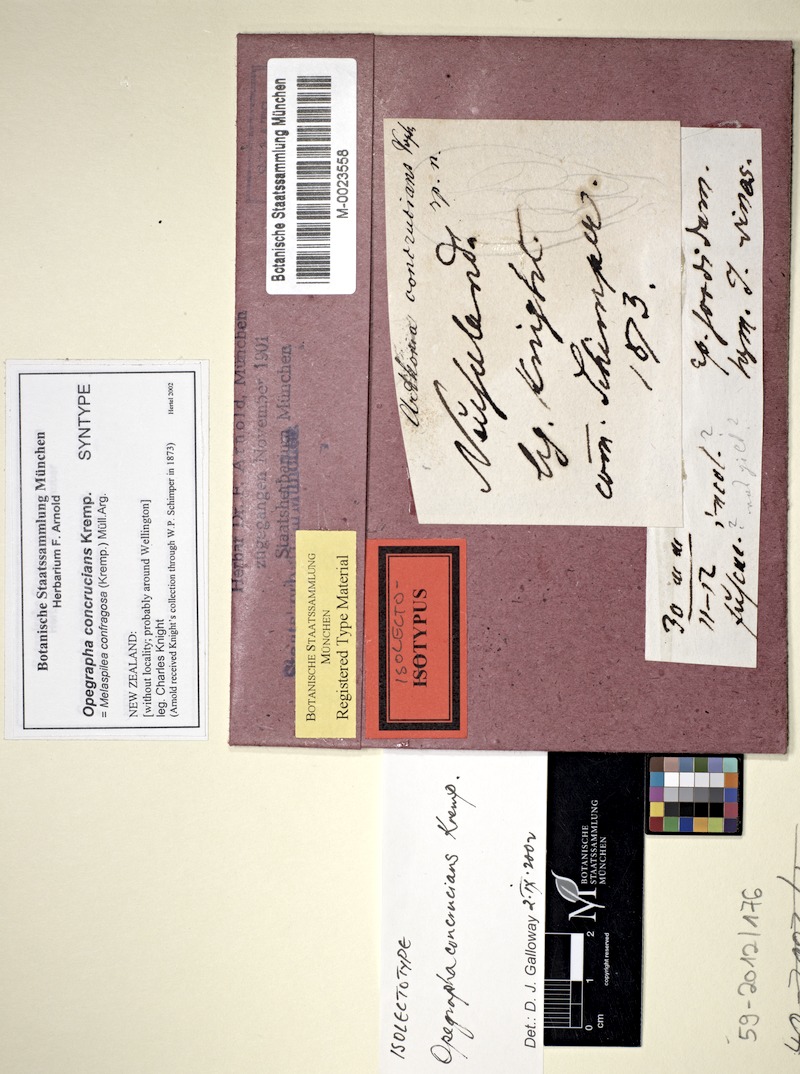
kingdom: Fungi
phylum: Ascomycota
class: Arthoniomycetes
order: Arthoniales
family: Opegraphaceae
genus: Opegrapha
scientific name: Opegrapha
